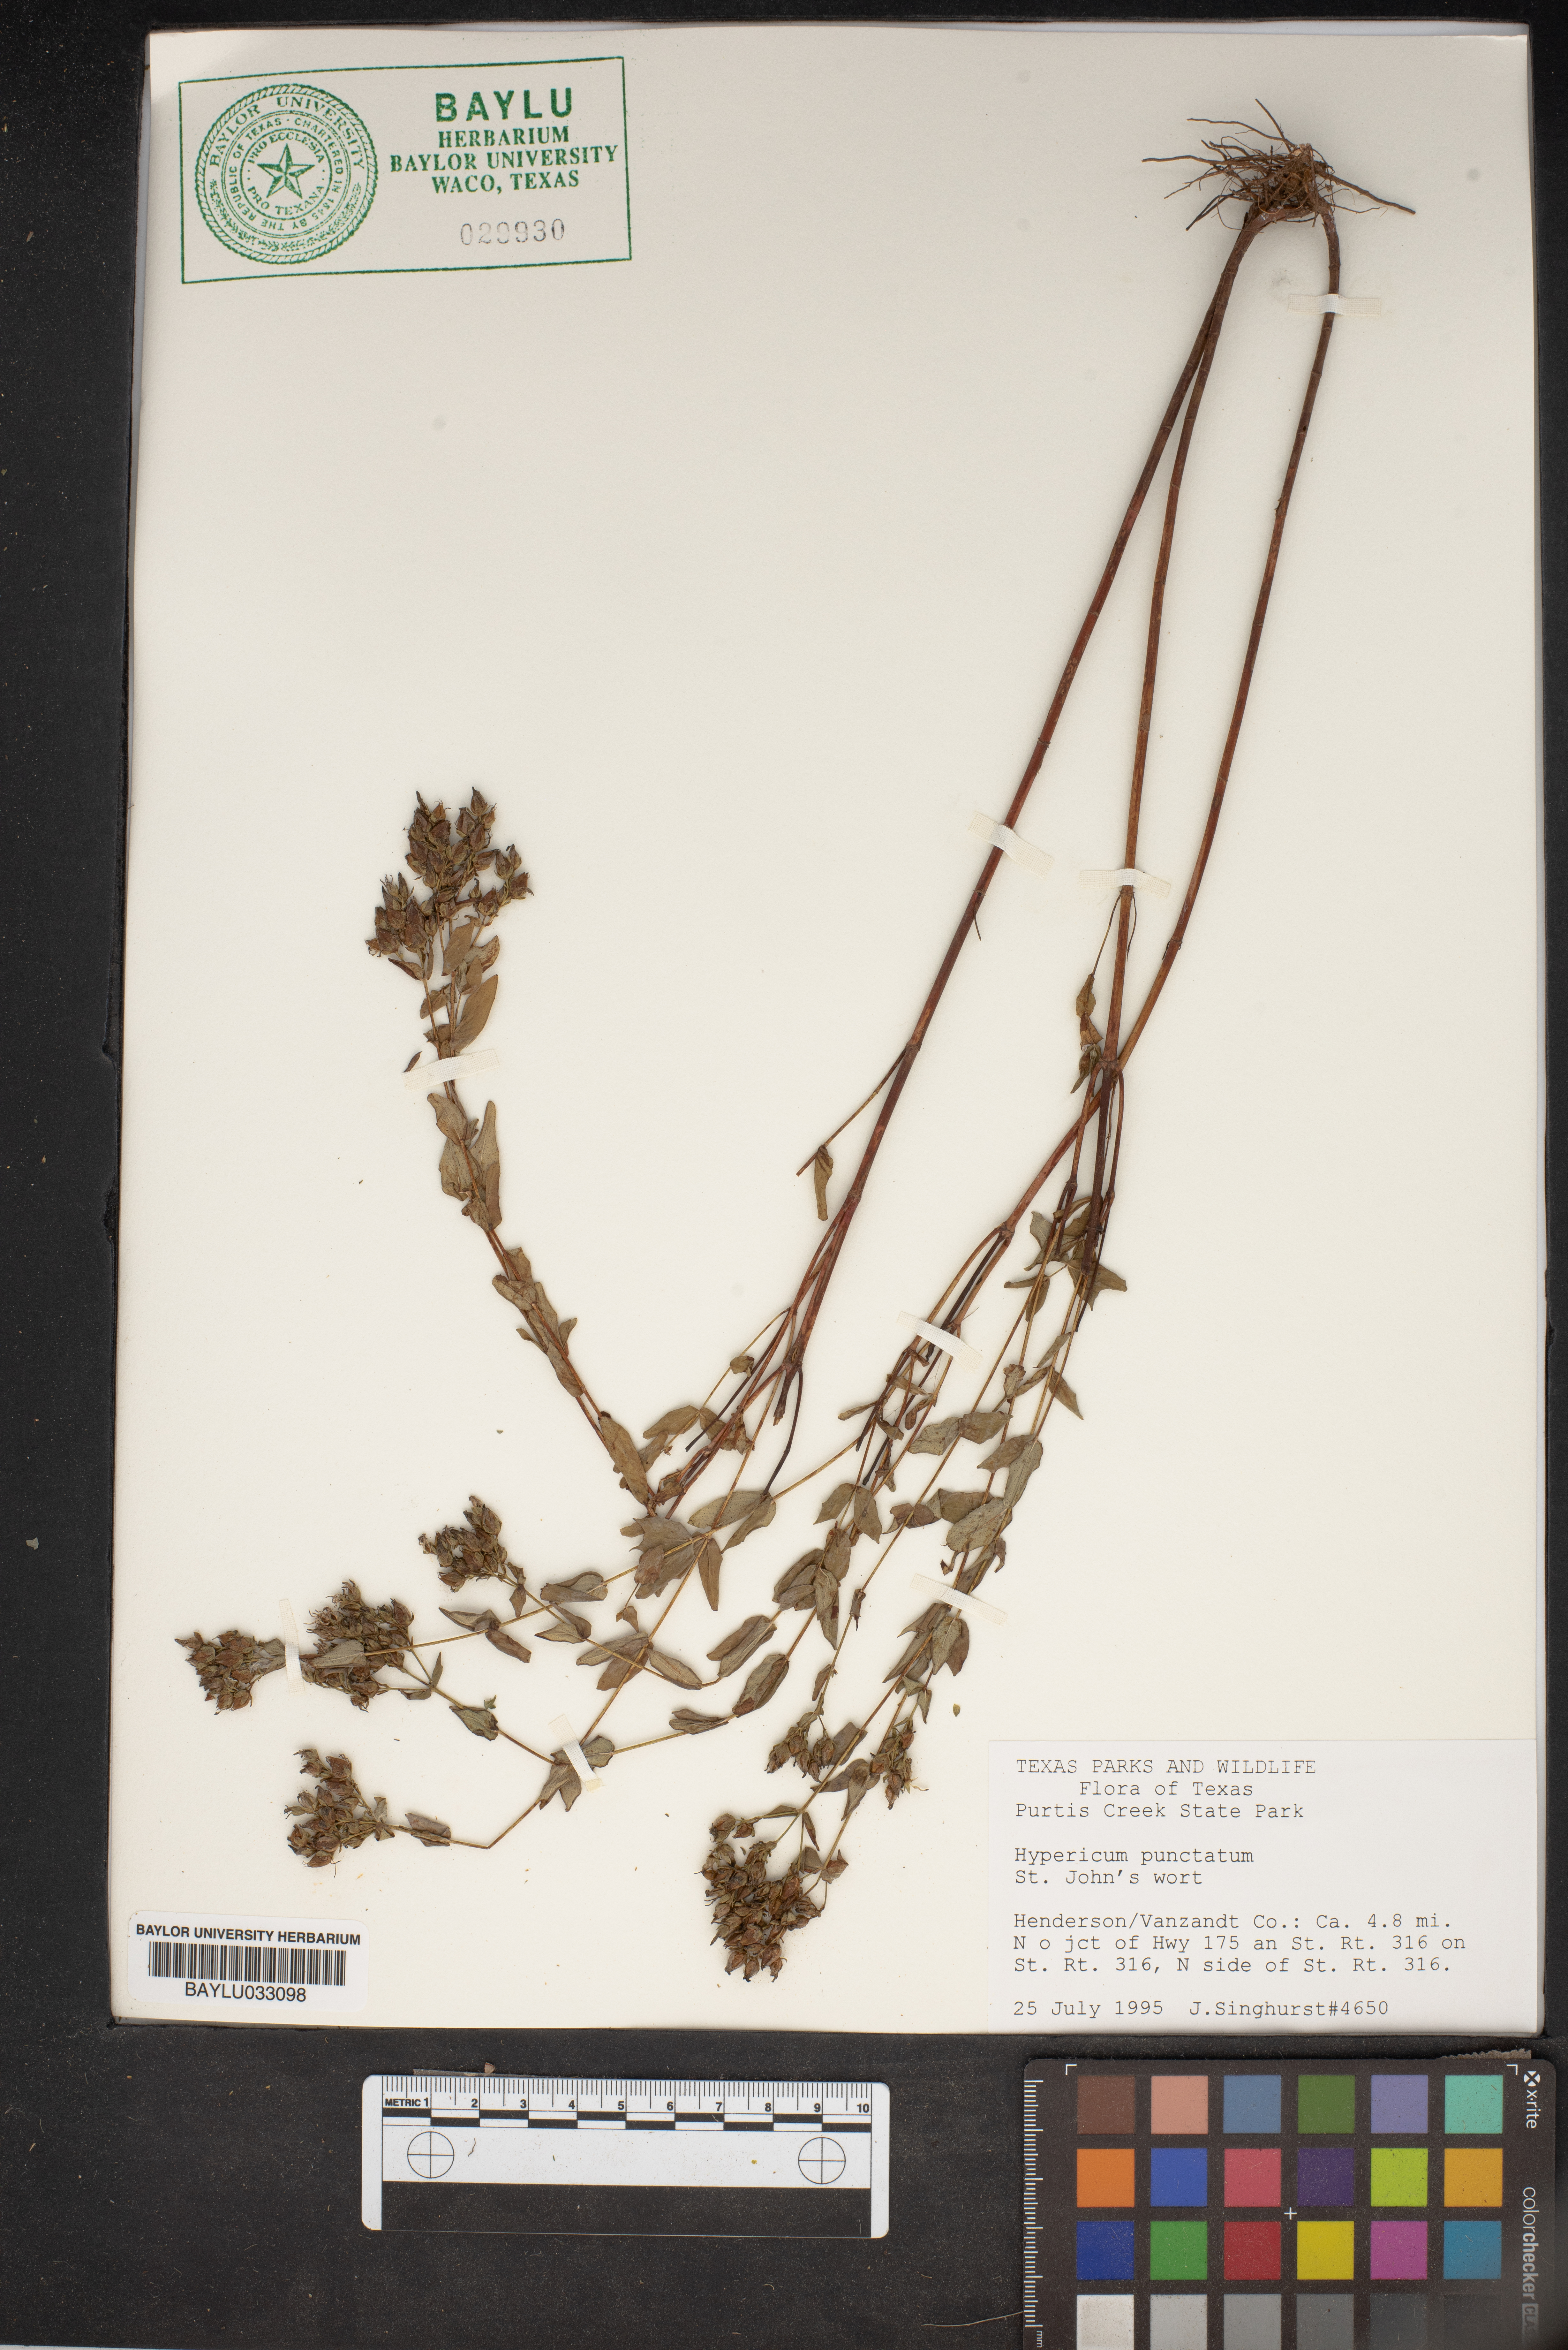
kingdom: Plantae
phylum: Tracheophyta
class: Magnoliopsida
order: Malpighiales
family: Hypericaceae
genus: Hypericum
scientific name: Hypericum punctatum
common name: Spotted st. john's-wort
